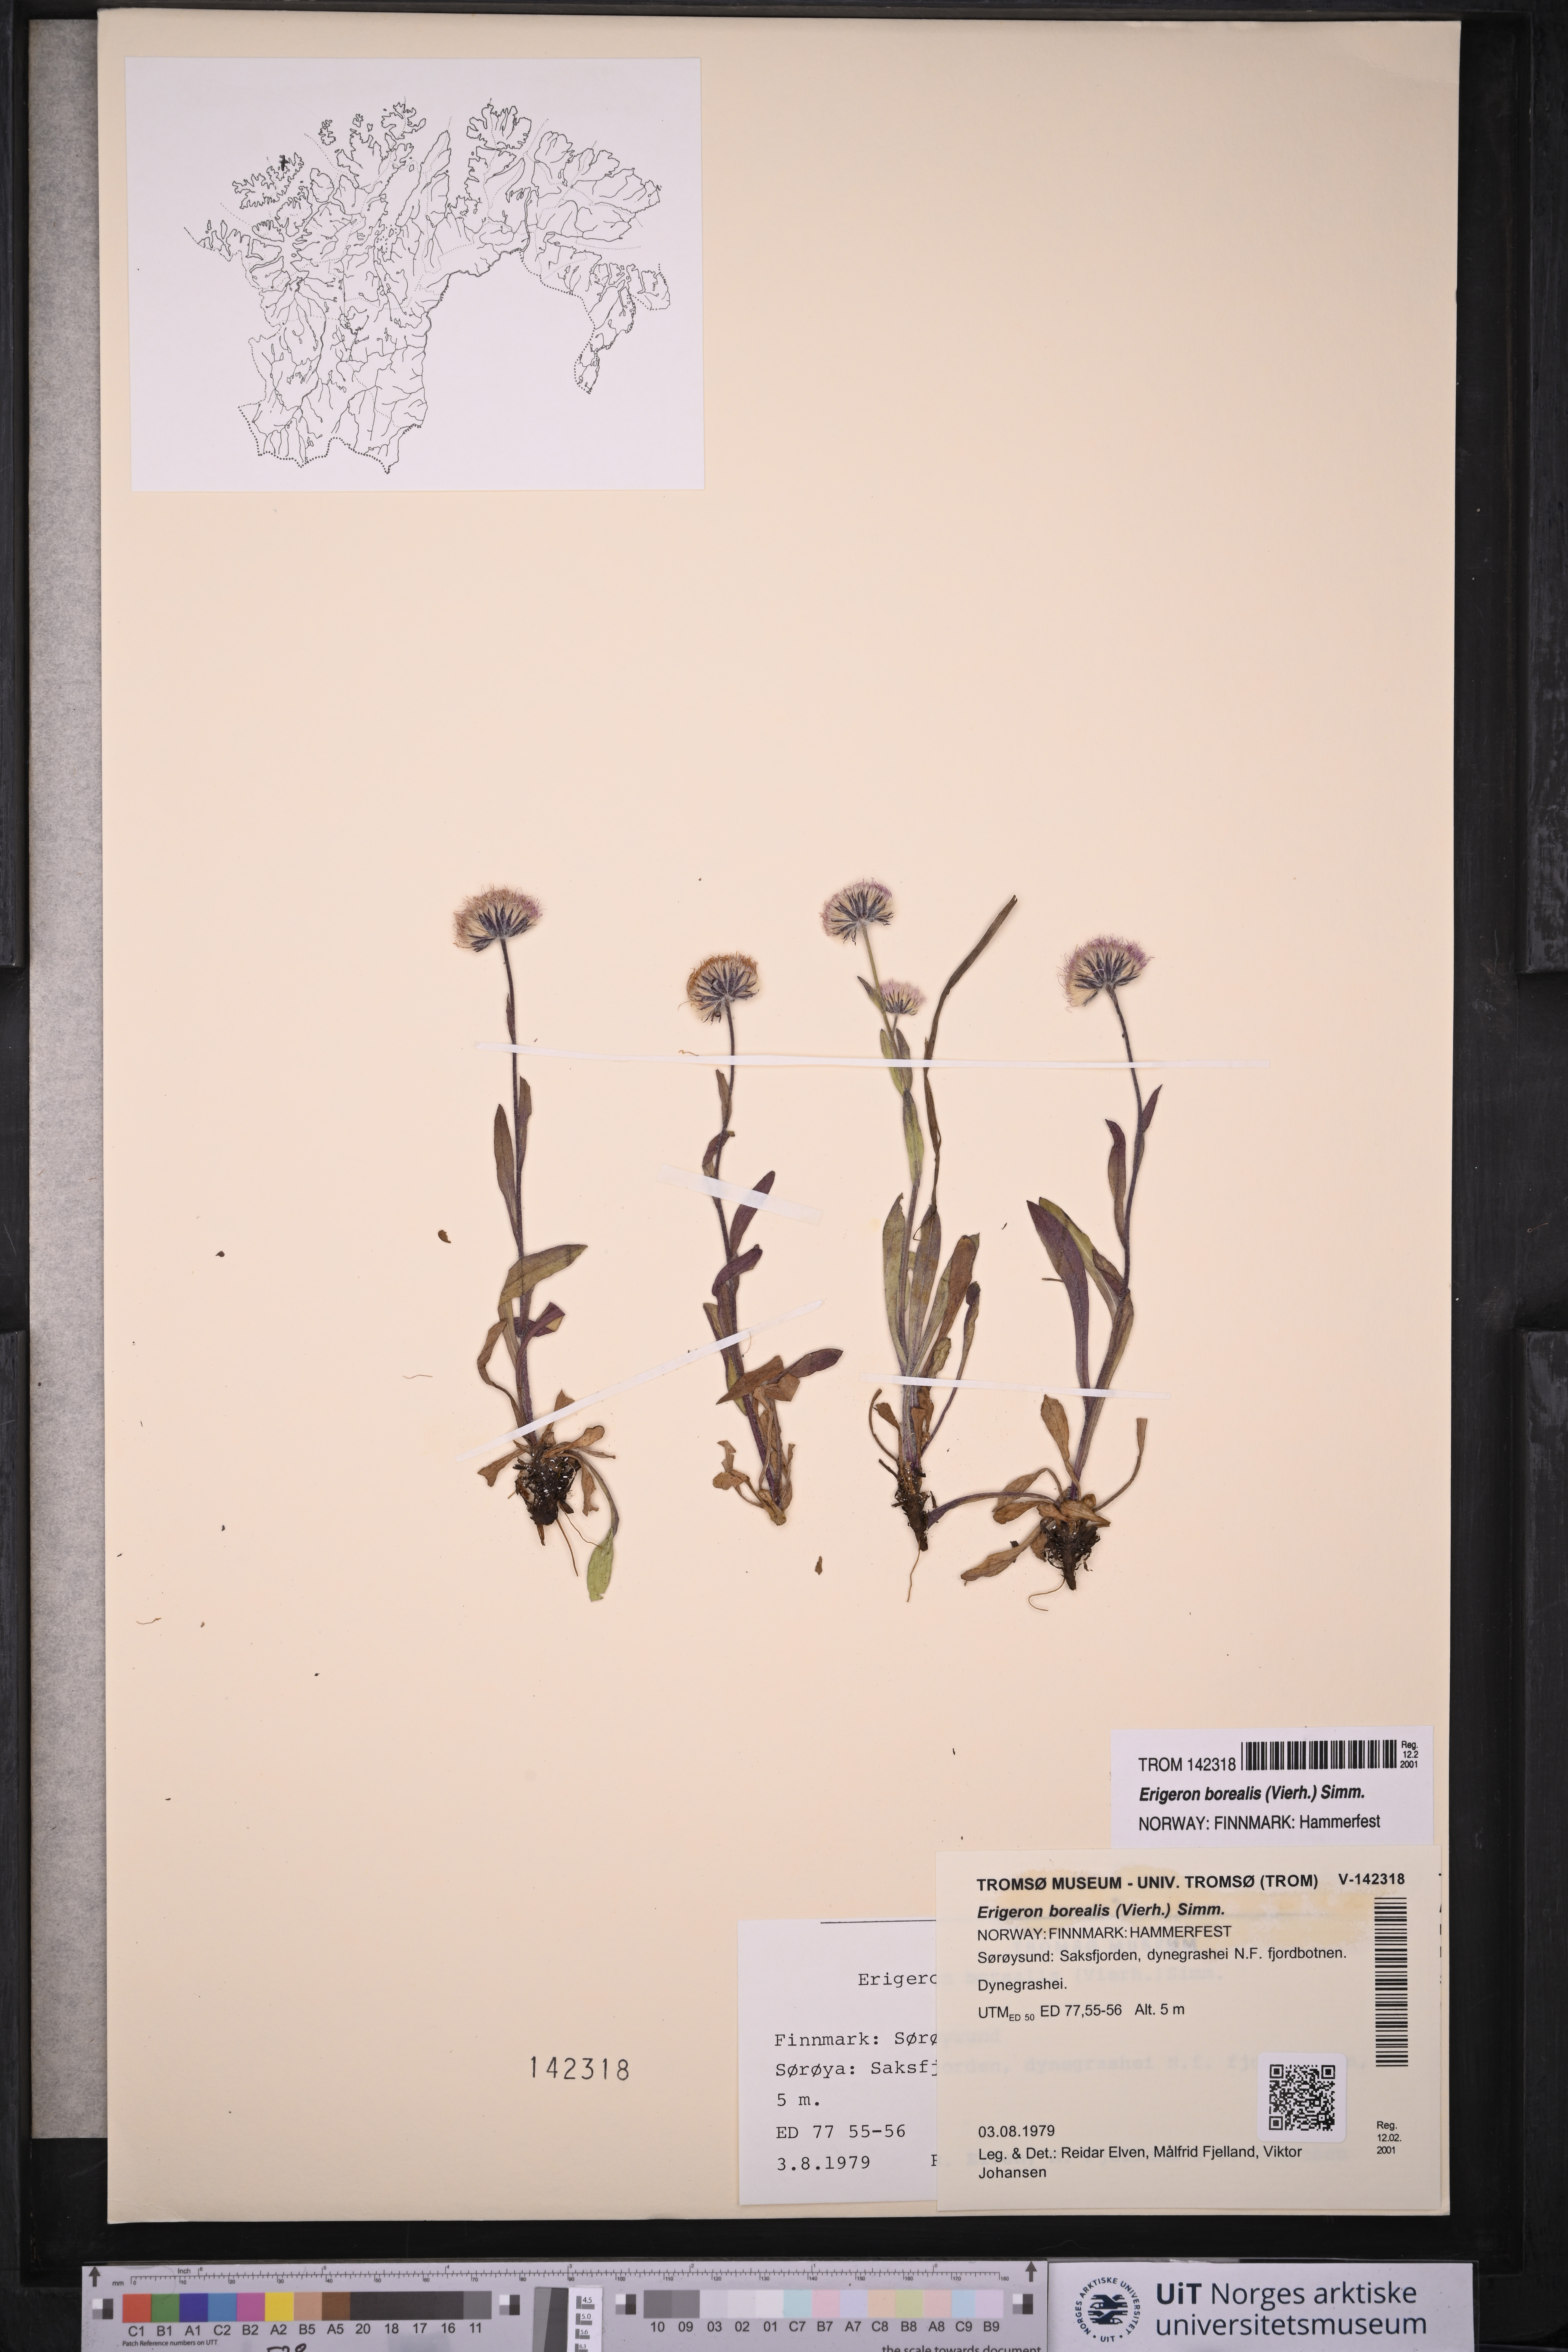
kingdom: Plantae
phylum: Tracheophyta
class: Magnoliopsida
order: Asterales
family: Asteraceae
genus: Erigeron
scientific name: Erigeron borealis
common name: Alpine fleabane
